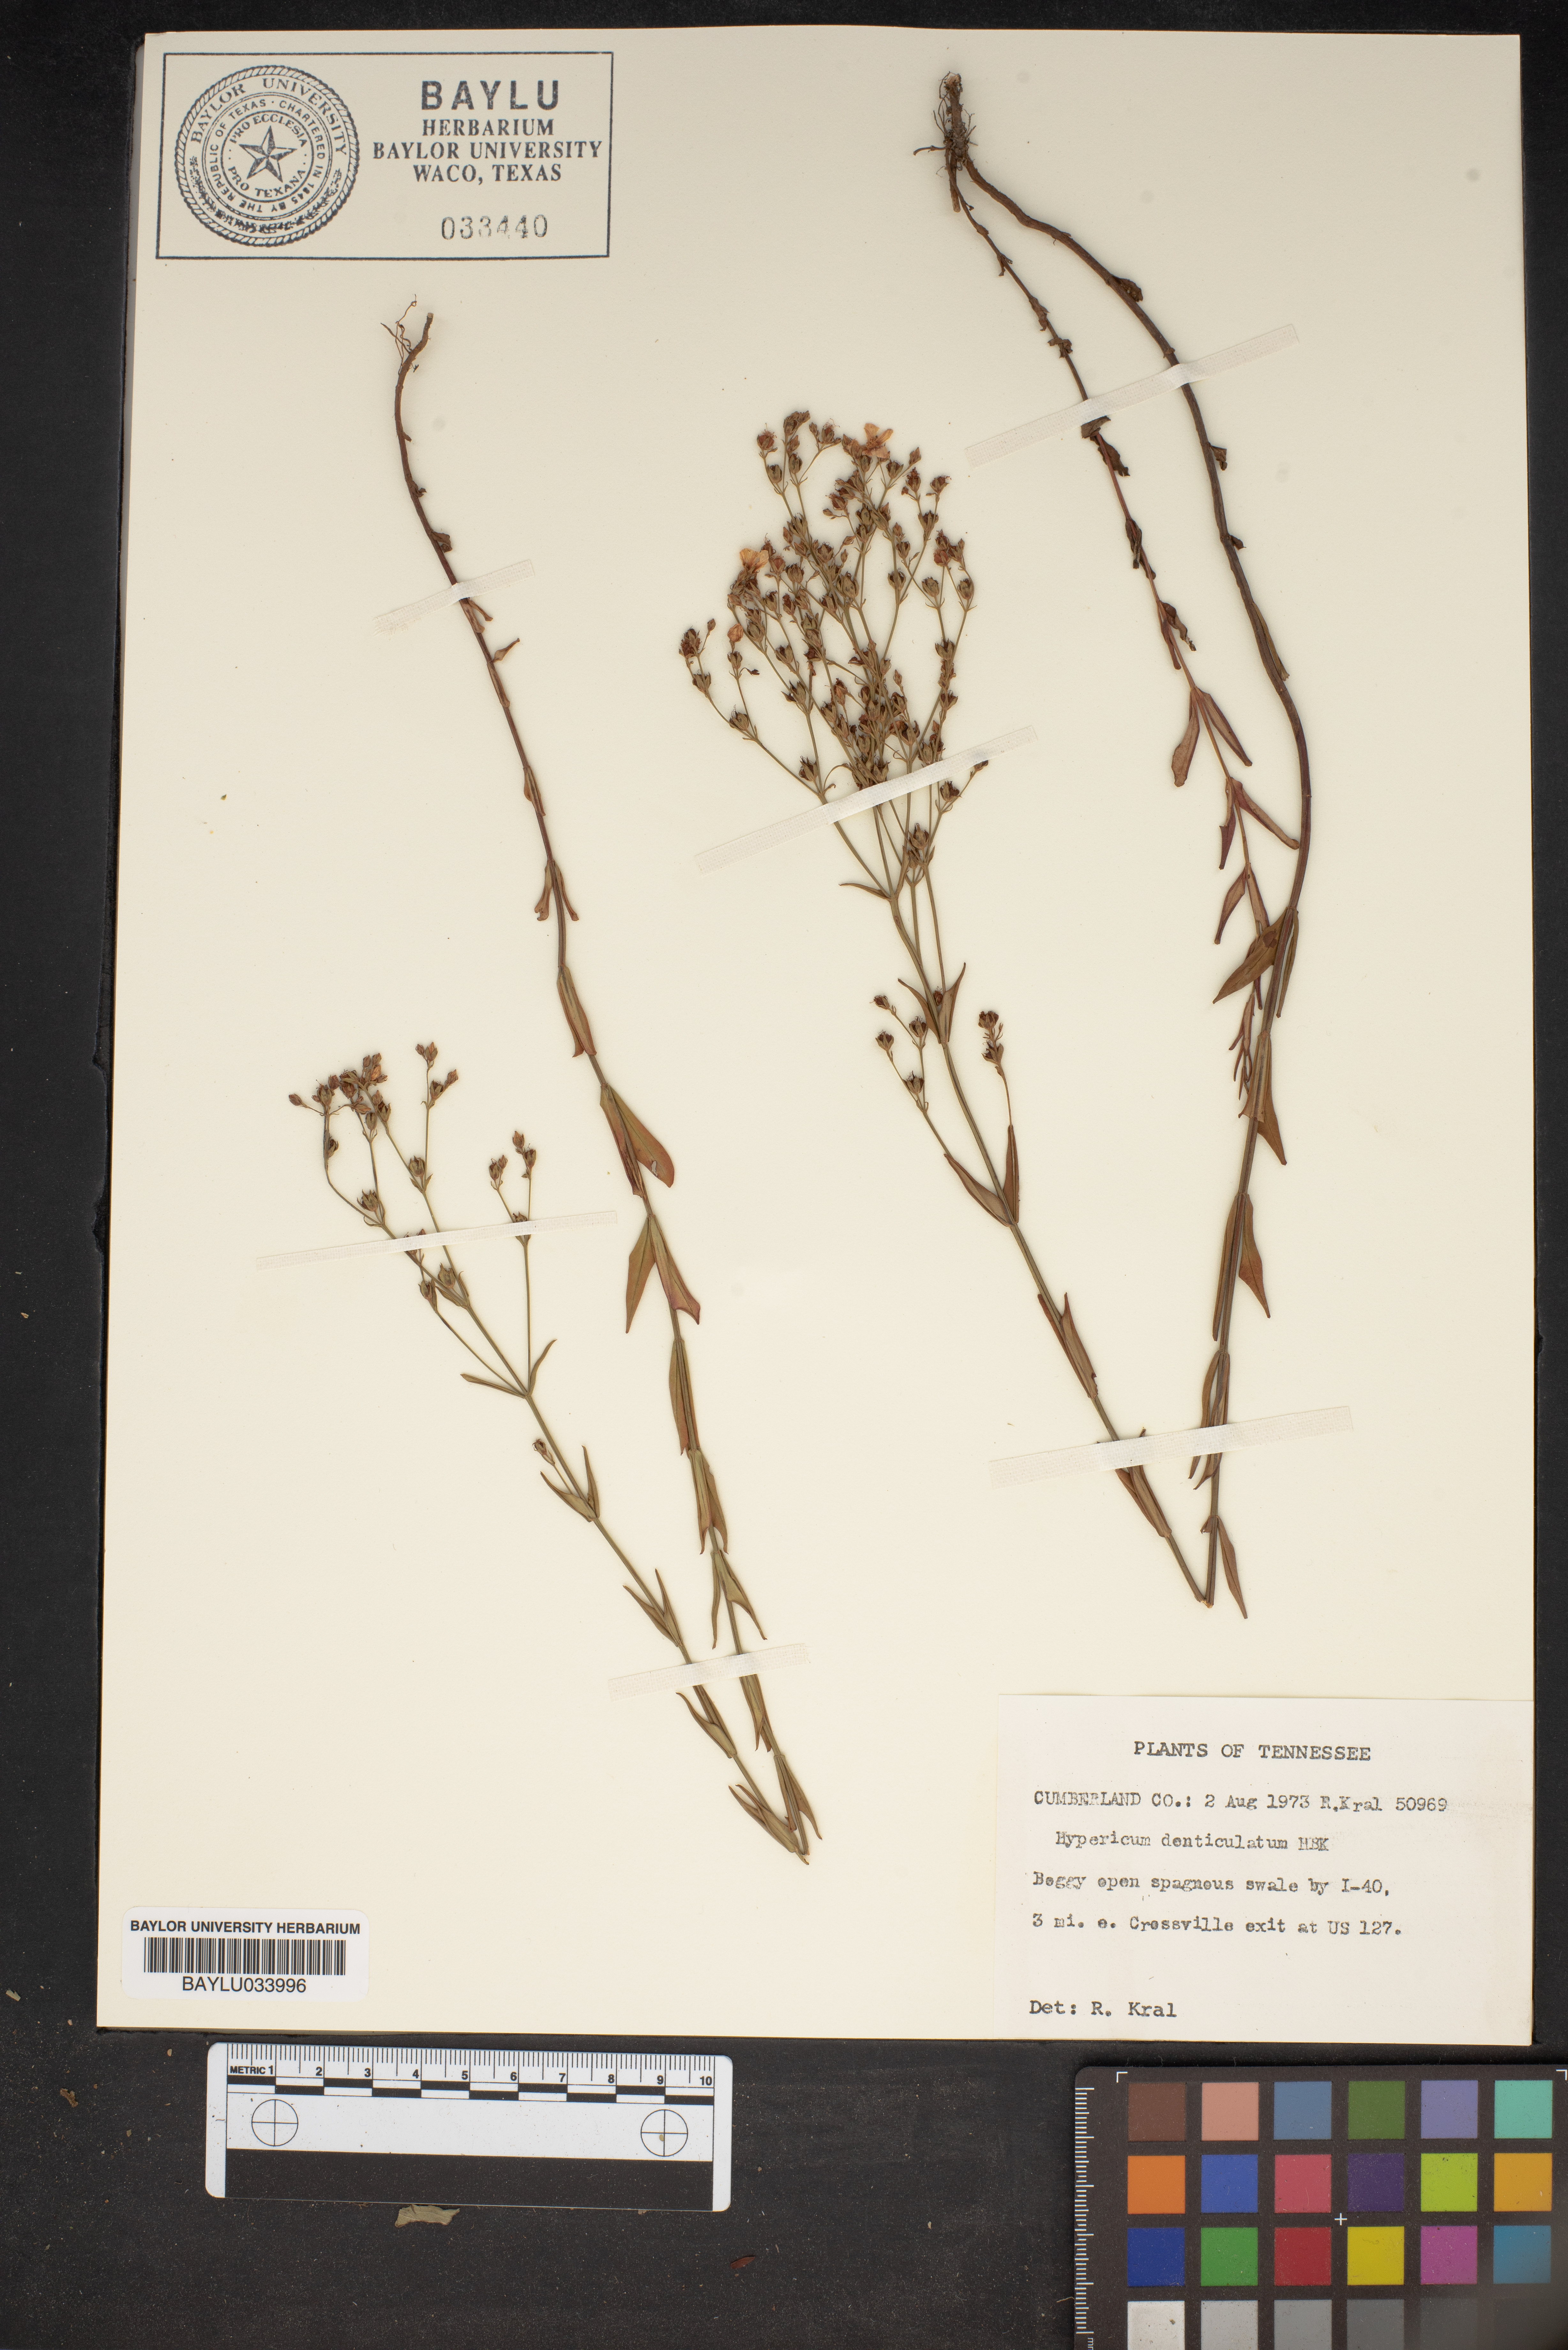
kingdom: Plantae
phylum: Tracheophyta
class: Magnoliopsida
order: Malpighiales
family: Hypericaceae
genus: Hypericum
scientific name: Hypericum denticulatum
